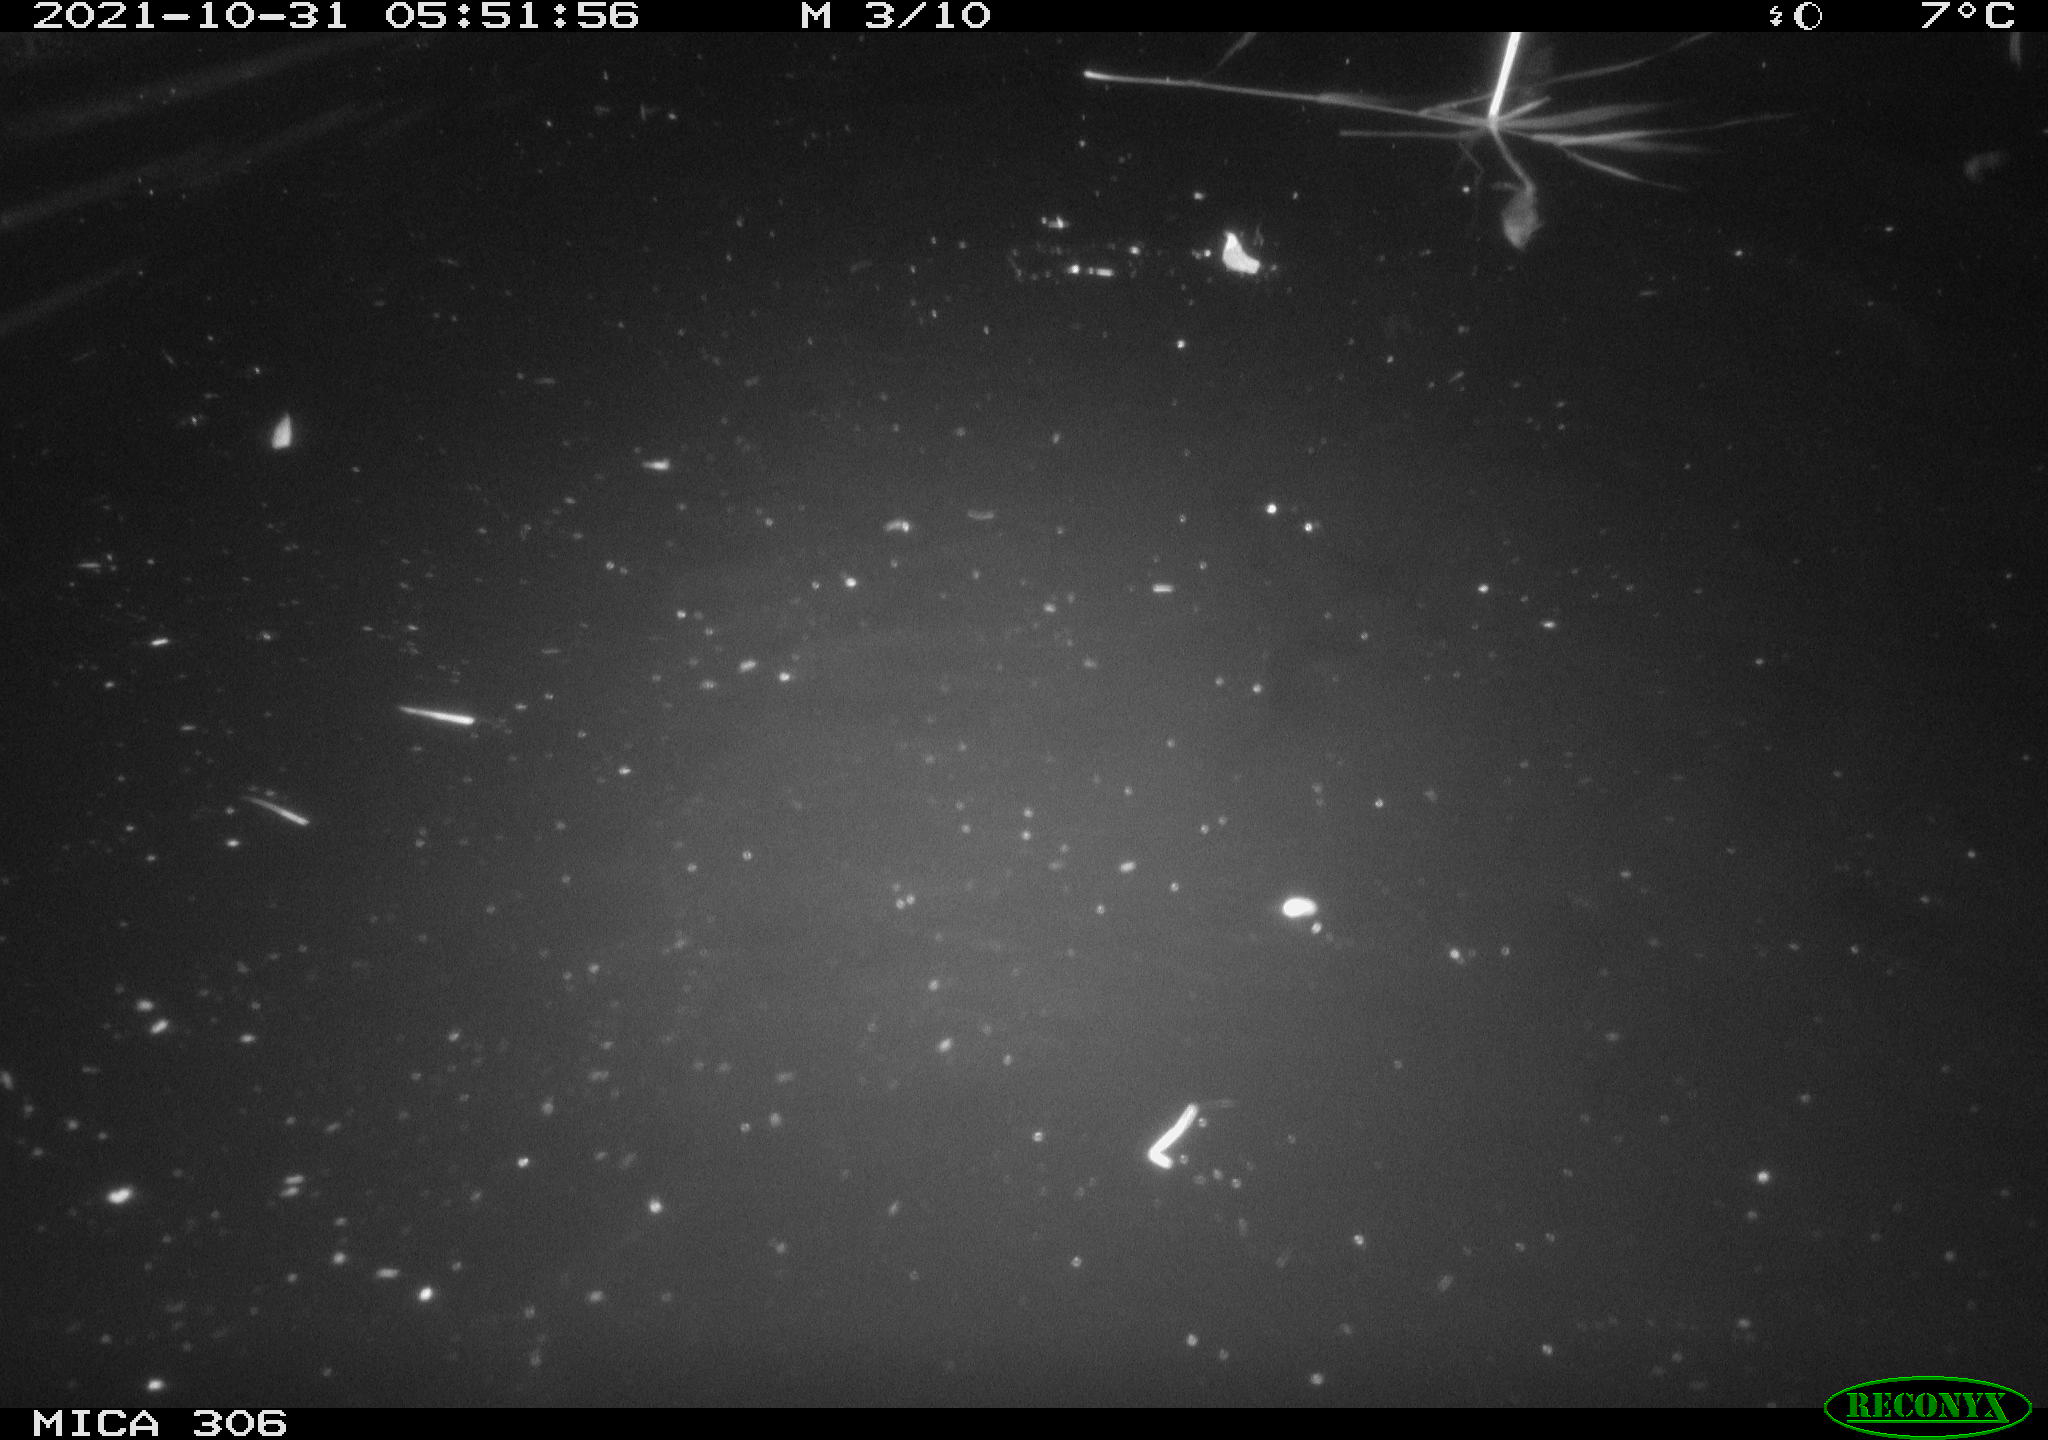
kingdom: Animalia
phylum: Chordata
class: Mammalia
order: Rodentia
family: Cricetidae
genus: Ondatra
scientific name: Ondatra zibethicus
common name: Muskrat
